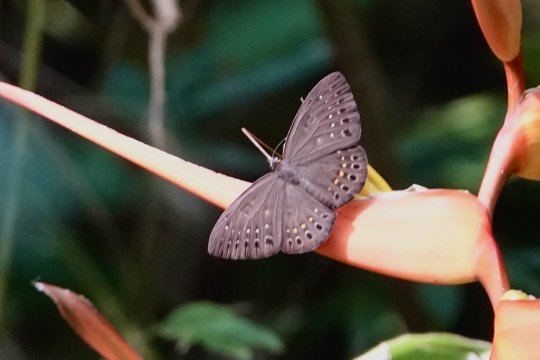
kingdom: Animalia
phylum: Cnidaria
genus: Eurybia
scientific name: Eurybia elvina
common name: Blind Eurybia
